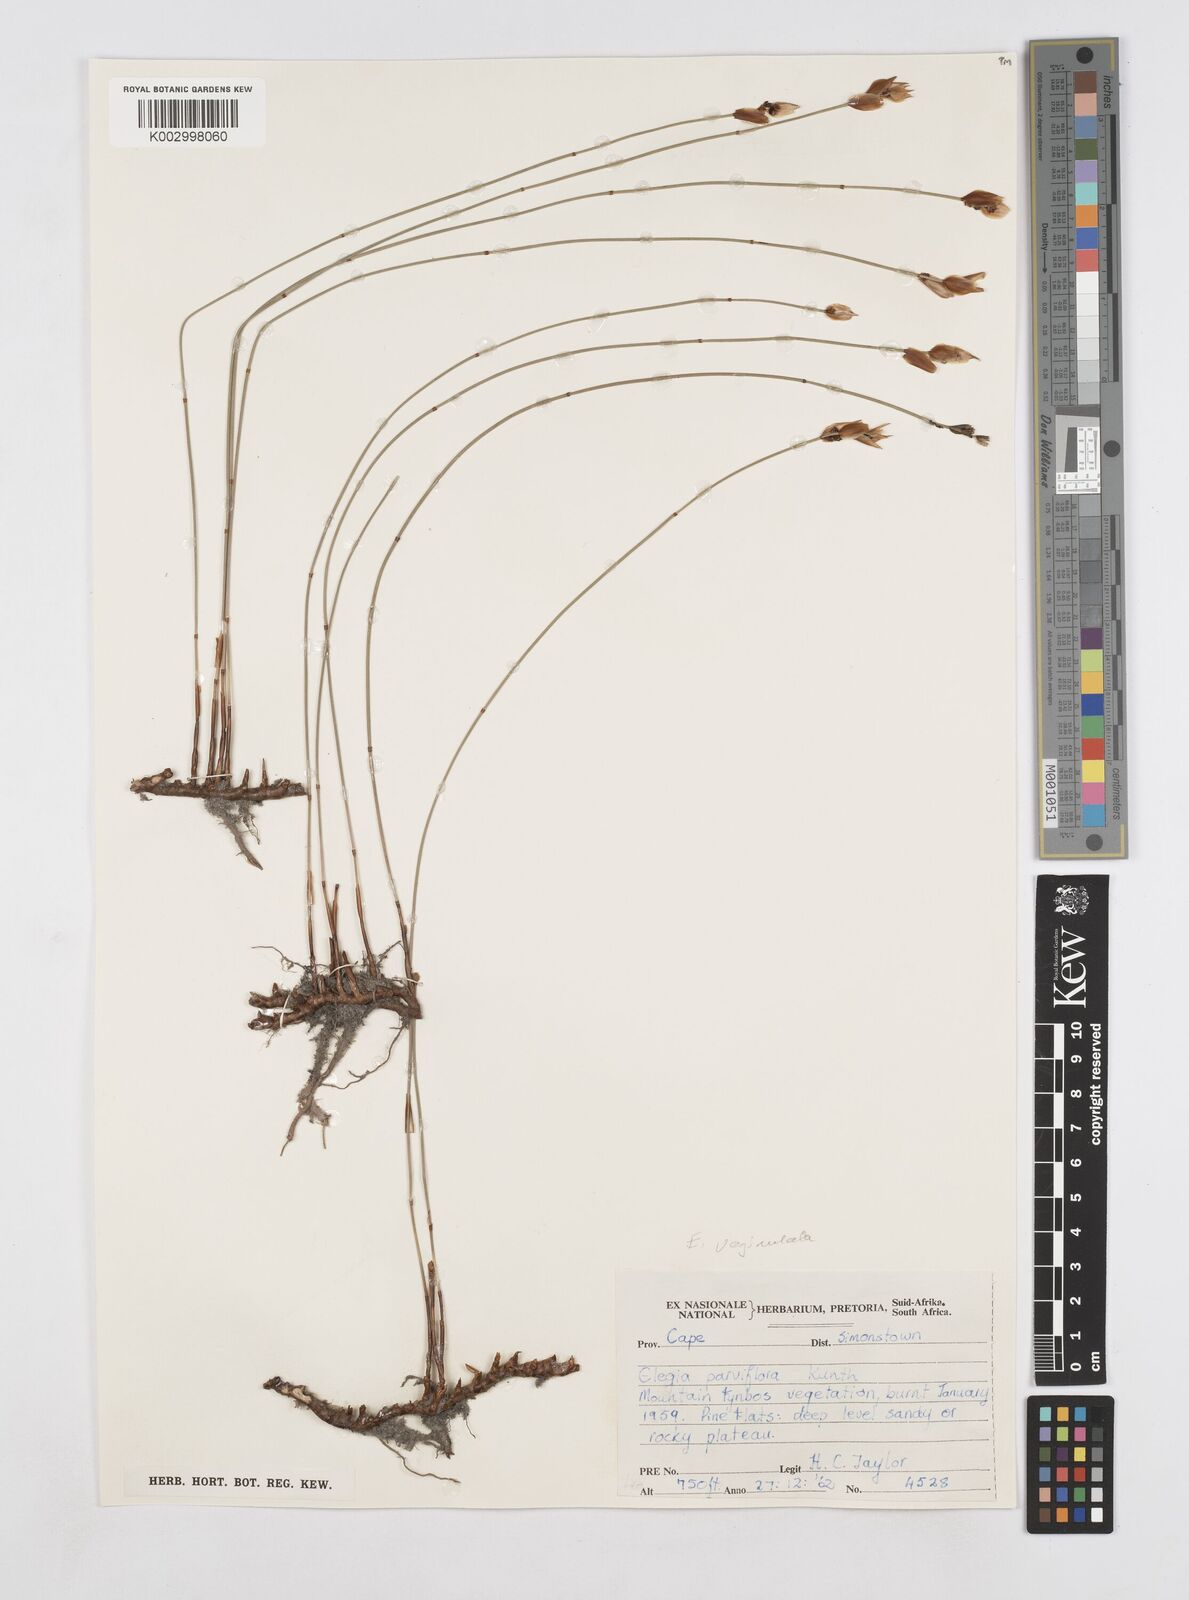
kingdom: Plantae
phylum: Tracheophyta
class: Liliopsida
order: Poales
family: Restionaceae
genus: Elegia
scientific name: Elegia vaginulata
